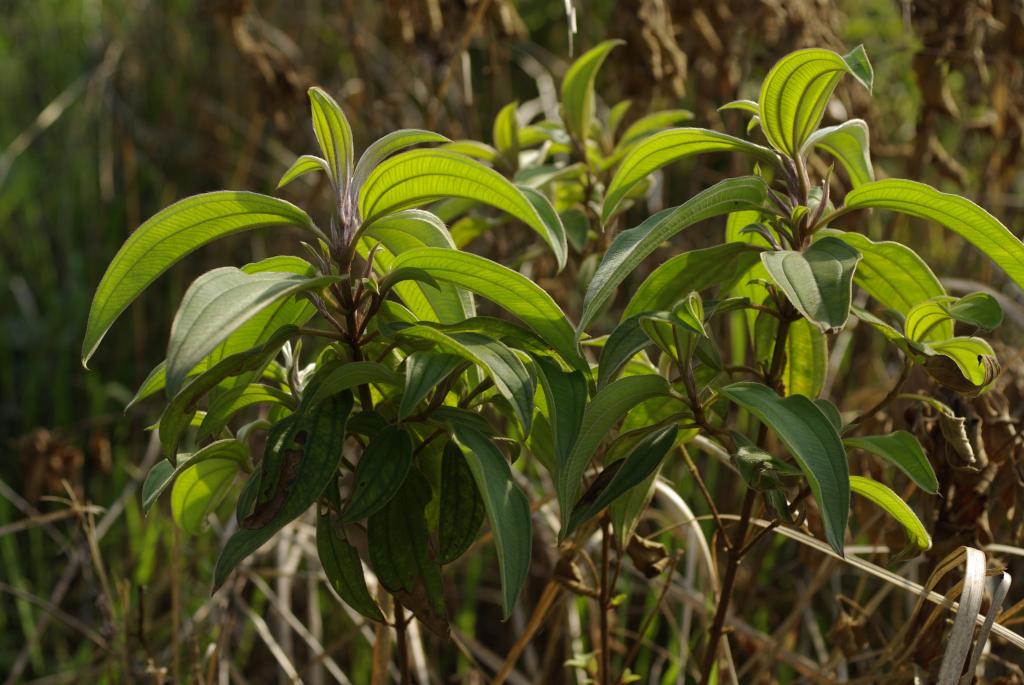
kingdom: Plantae
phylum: Tracheophyta
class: Magnoliopsida
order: Myrtales
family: Melastomataceae
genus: Melastoma
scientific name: Melastoma malabathricum
